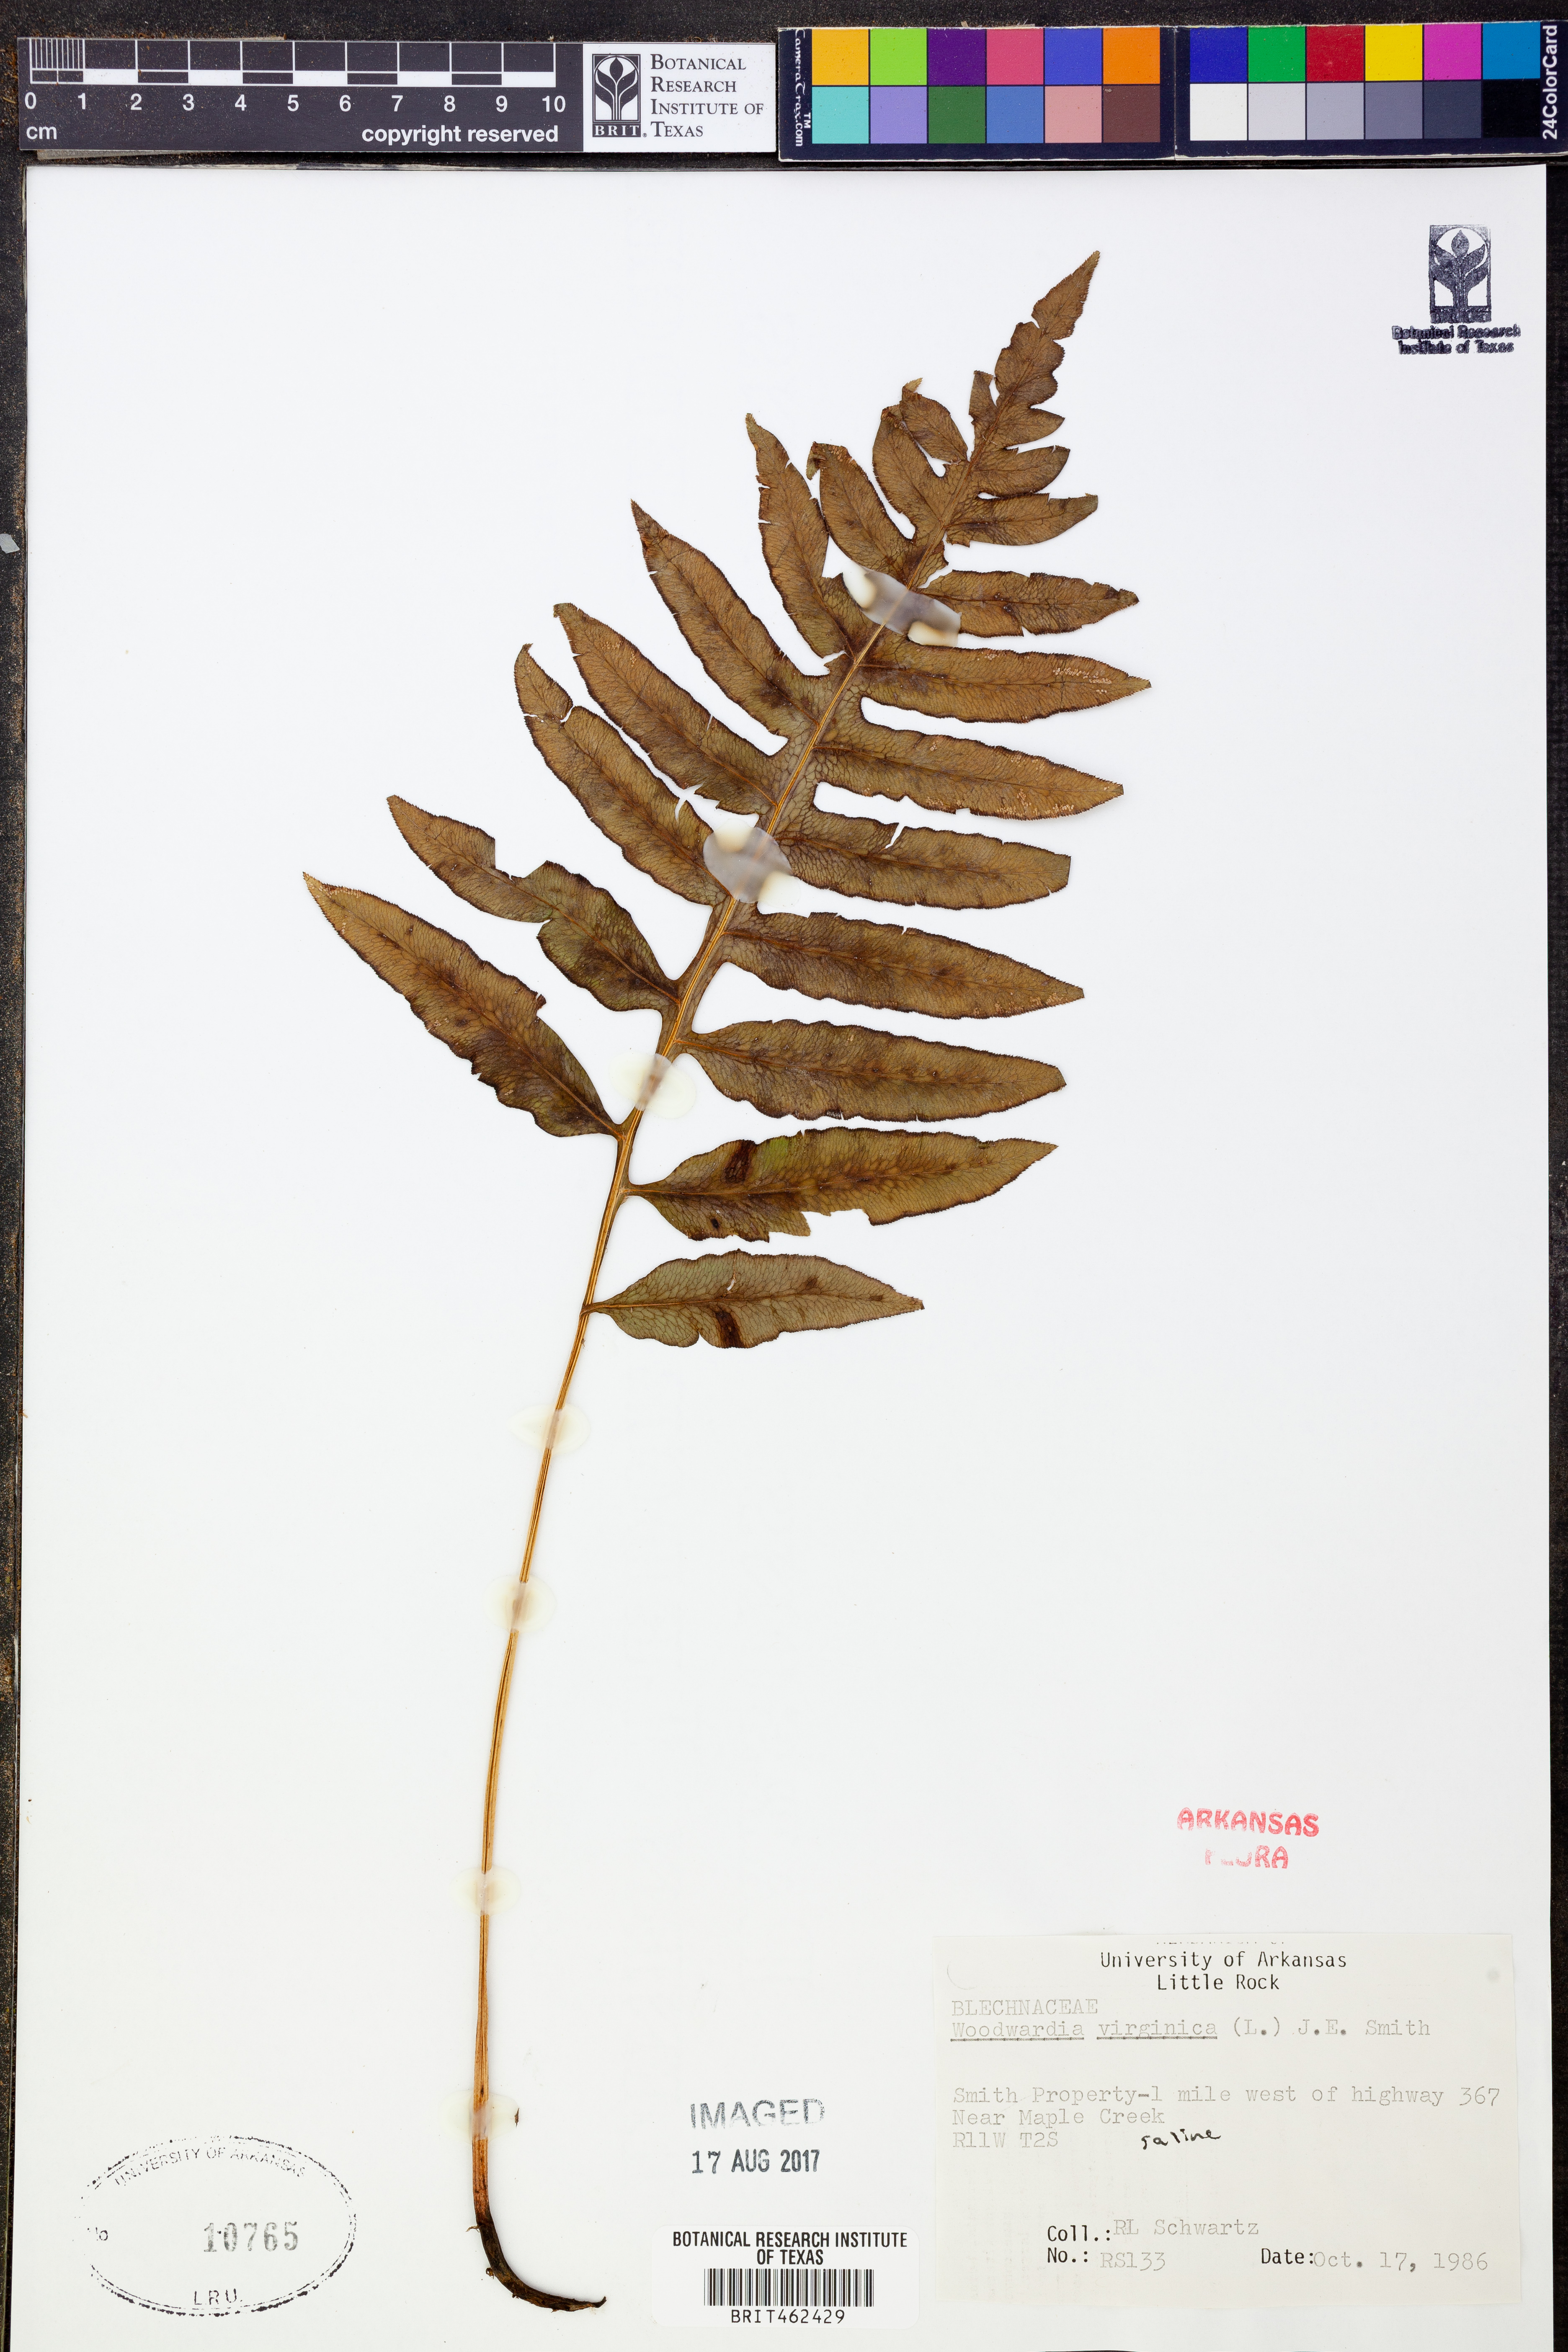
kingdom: Plantae
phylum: Tracheophyta
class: Polypodiopsida
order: Polypodiales
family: Blechnaceae
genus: Anchistea
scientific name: Anchistea virginica
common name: Virginia chain fern
